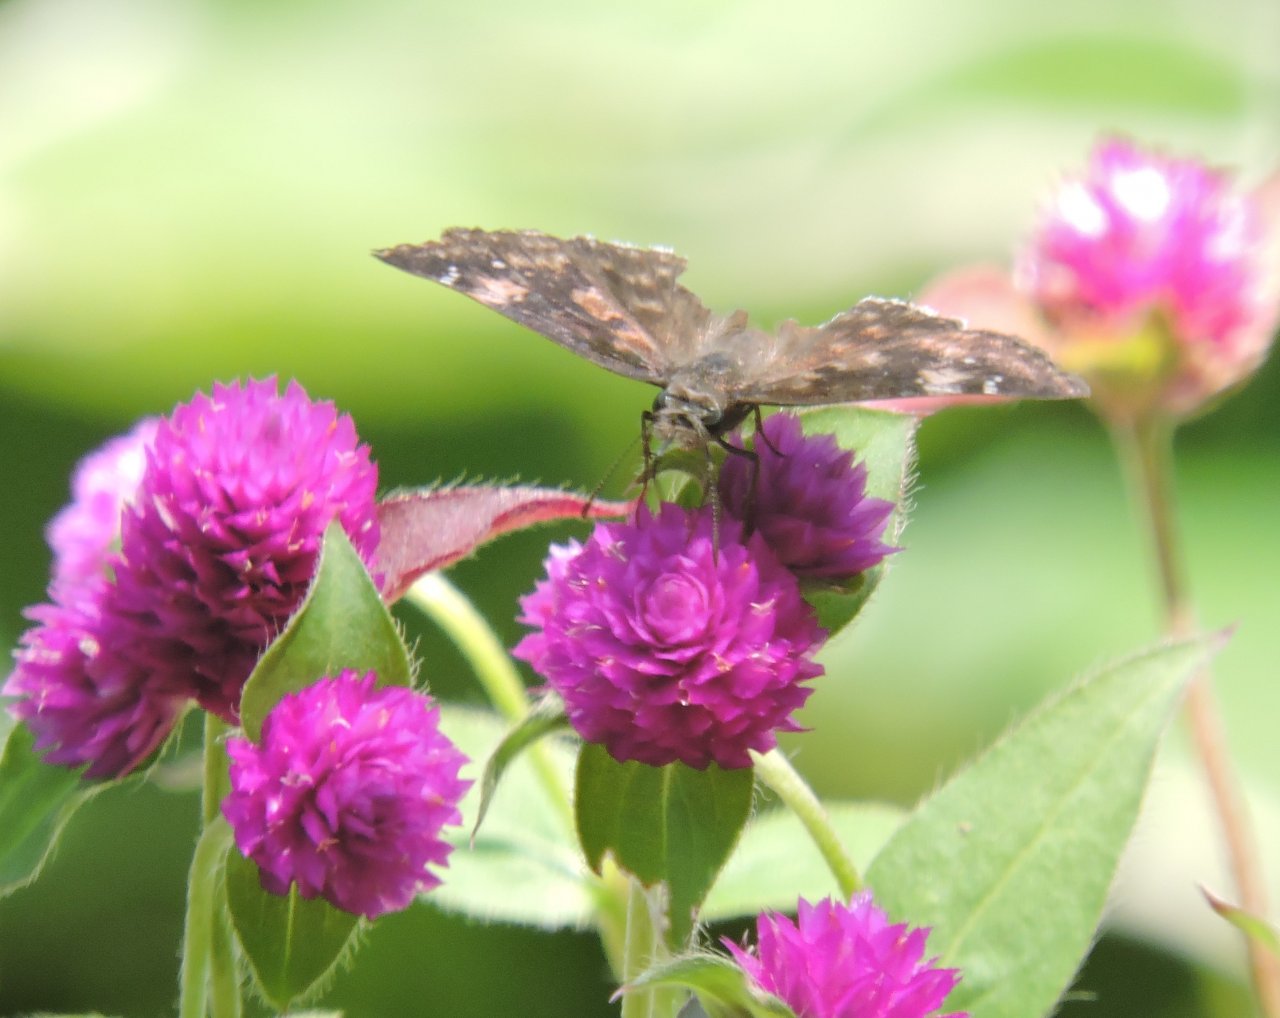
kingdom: Animalia
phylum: Arthropoda
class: Insecta
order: Lepidoptera
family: Hesperiidae
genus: Gesta
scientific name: Gesta
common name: Horace's Duskywing
